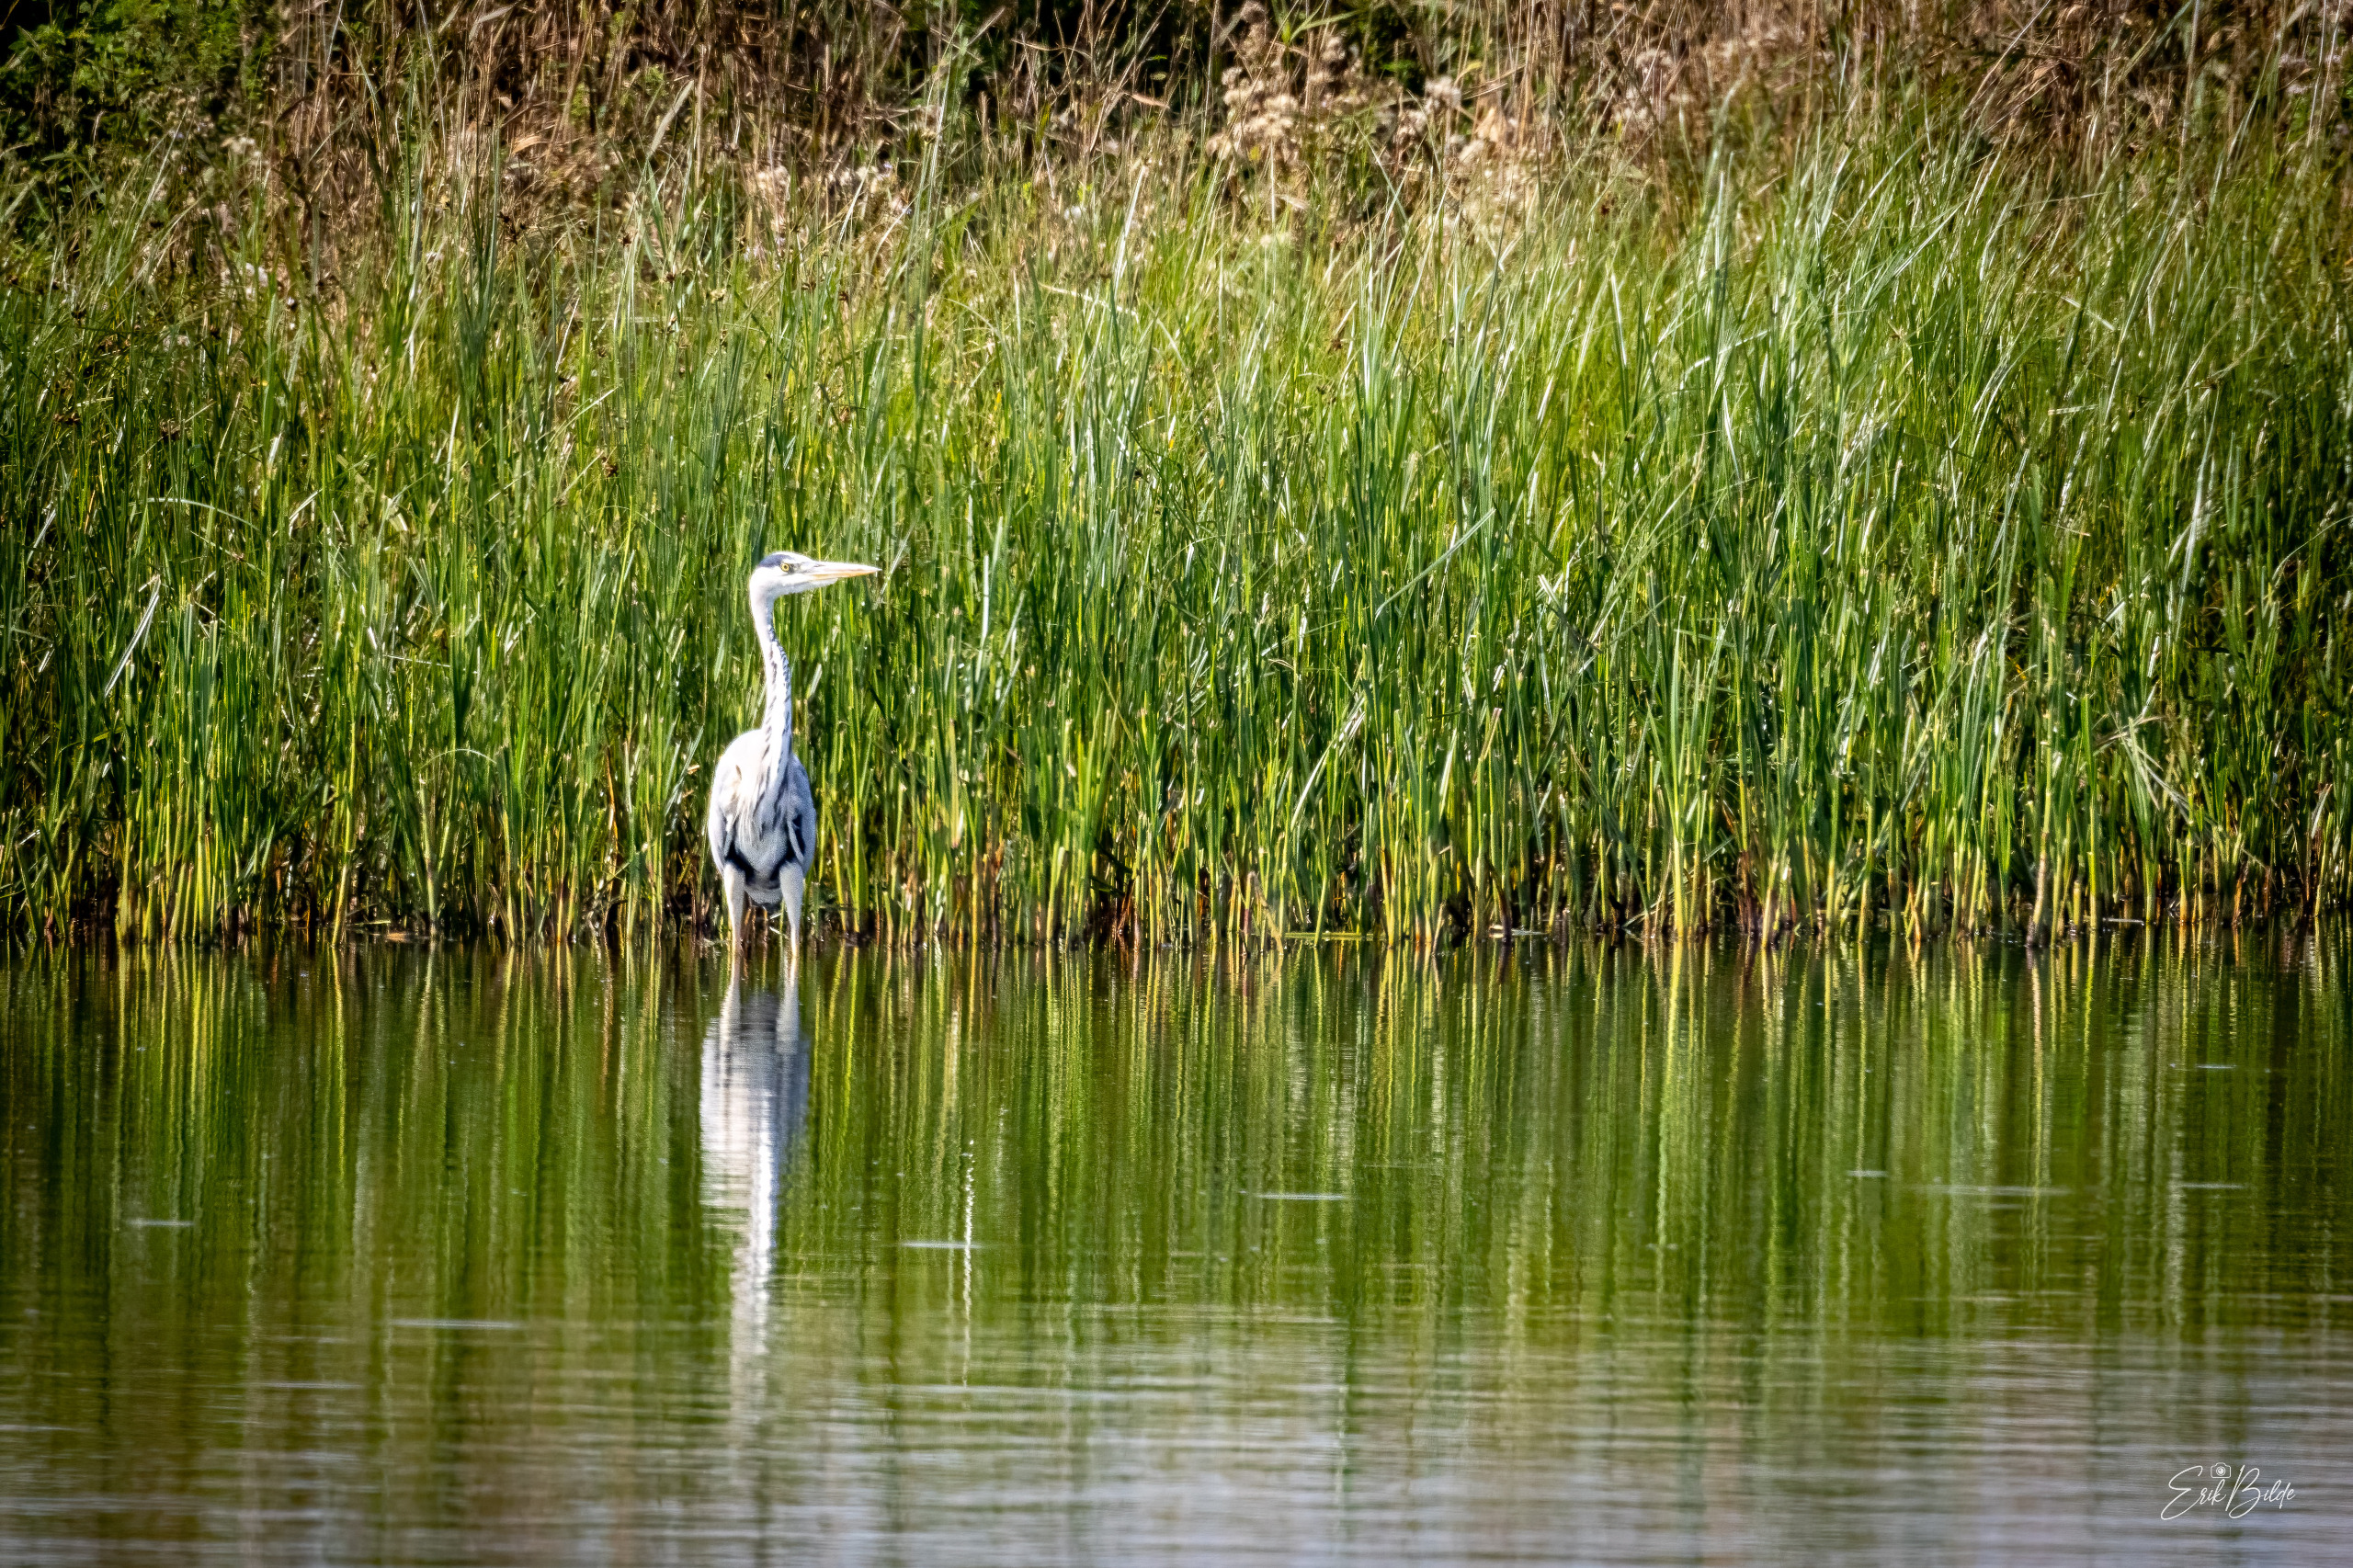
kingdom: Animalia
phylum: Chordata
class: Aves
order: Pelecaniformes
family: Ardeidae
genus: Ardea
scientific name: Ardea cinerea
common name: Fiskehejre
